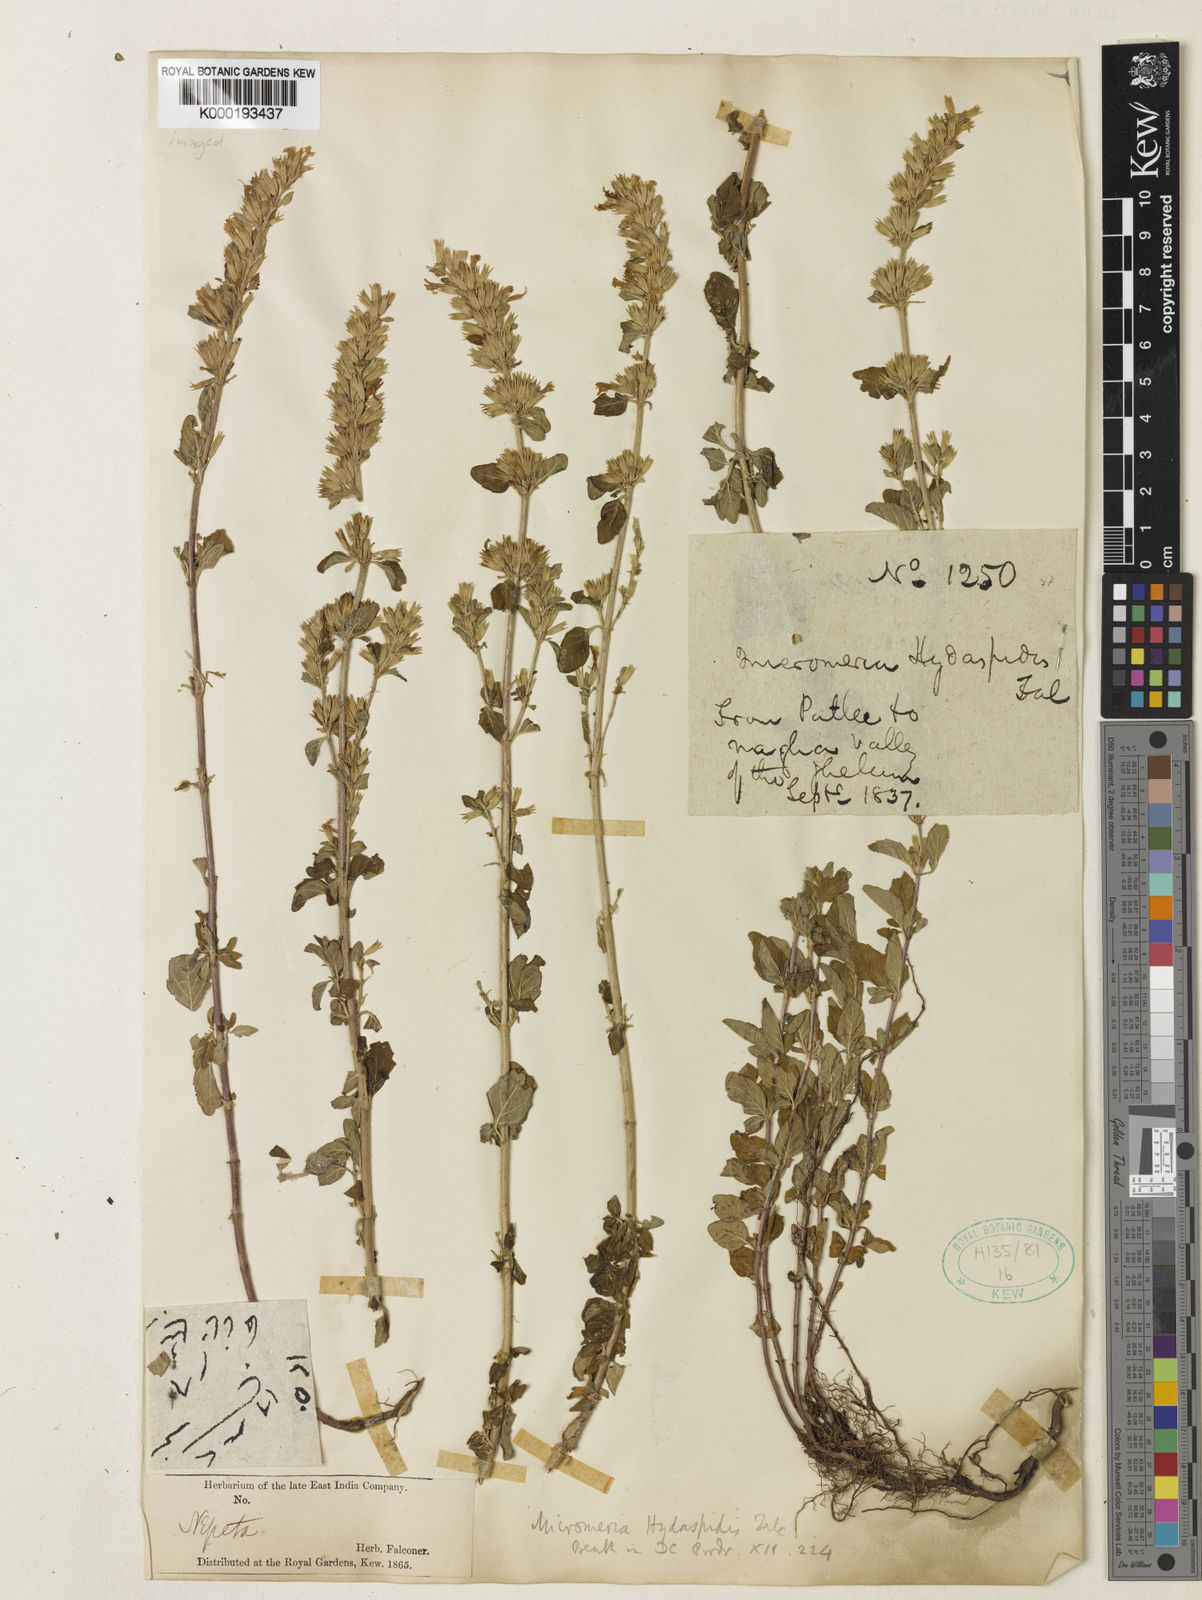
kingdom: Plantae
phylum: Tracheophyta
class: Magnoliopsida
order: Lamiales
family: Lamiaceae
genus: Clinopodium
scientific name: Clinopodium hydaspidis
